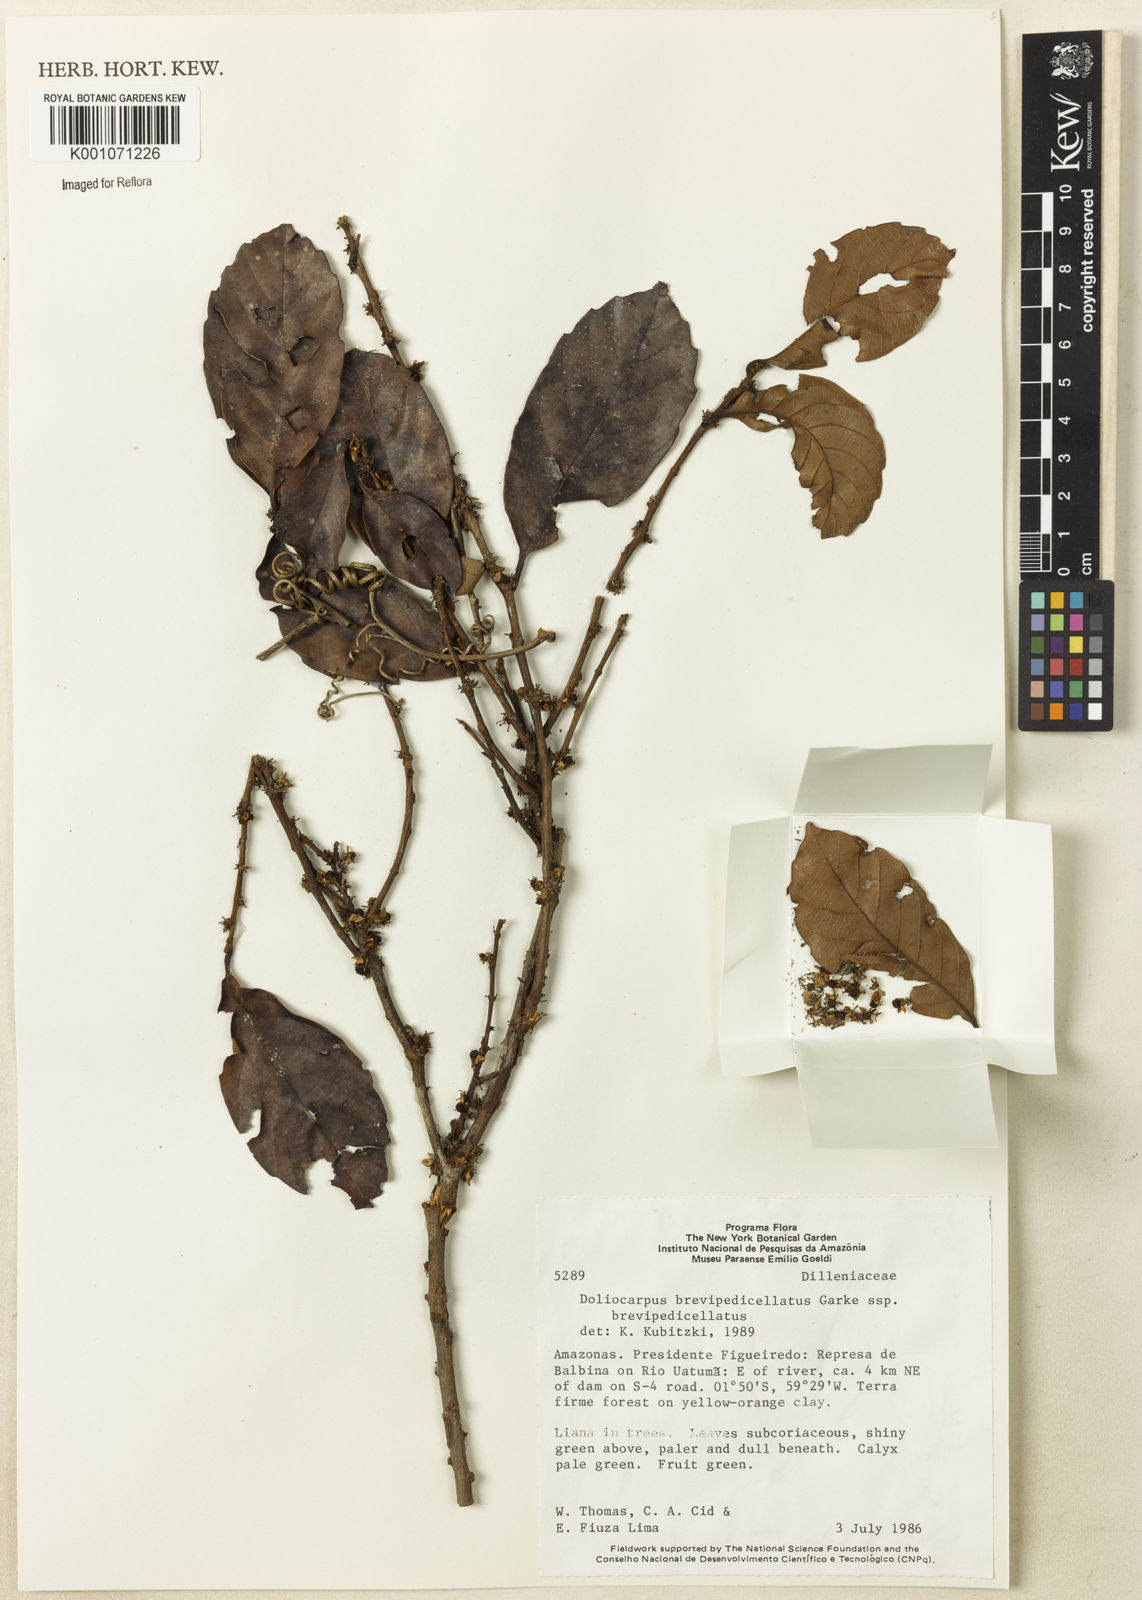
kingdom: Plantae
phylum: Tracheophyta
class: Magnoliopsida
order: Dilleniales
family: Dilleniaceae
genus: Doliocarpus
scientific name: Doliocarpus brevipedicellatus
